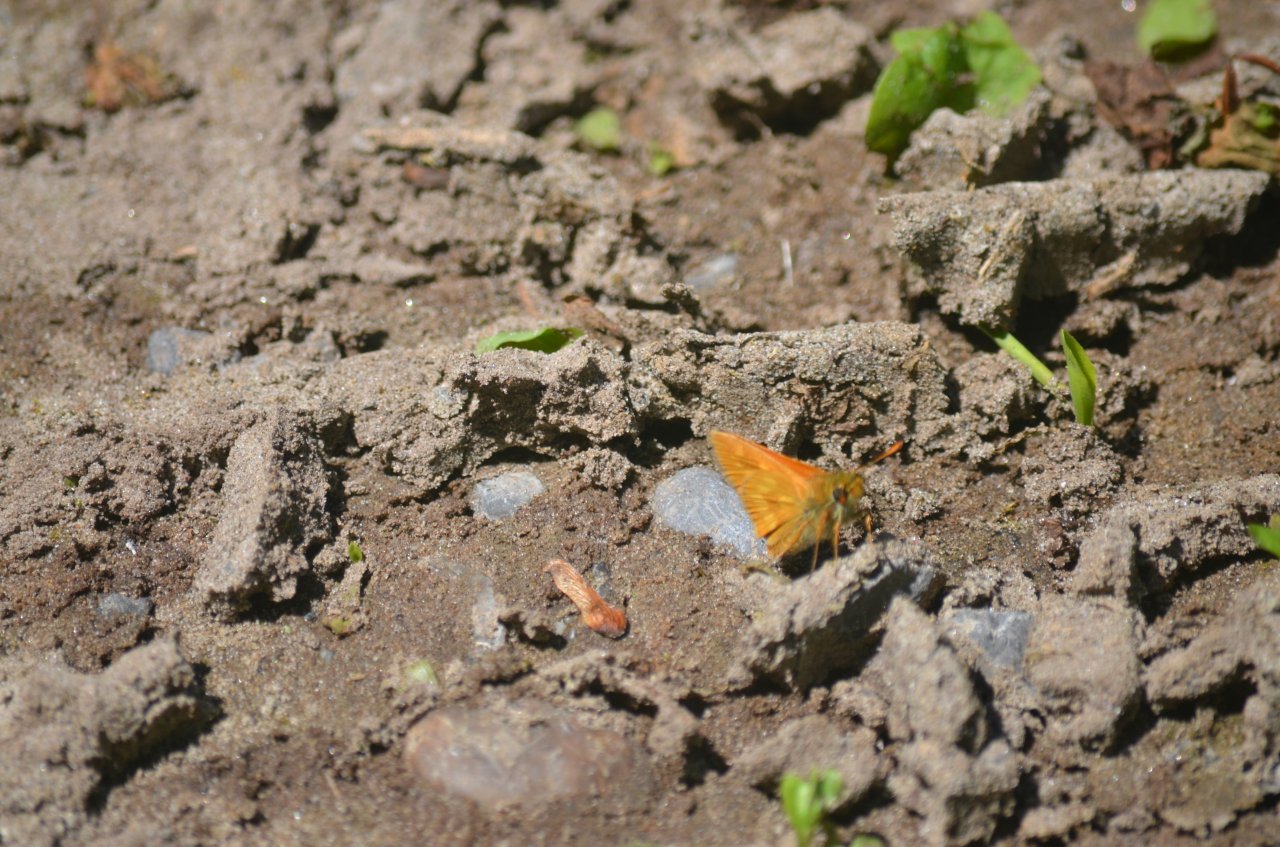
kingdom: Animalia
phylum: Arthropoda
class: Insecta
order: Lepidoptera
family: Hesperiidae
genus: Polites
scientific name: Polites
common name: Long Dash Skipper
